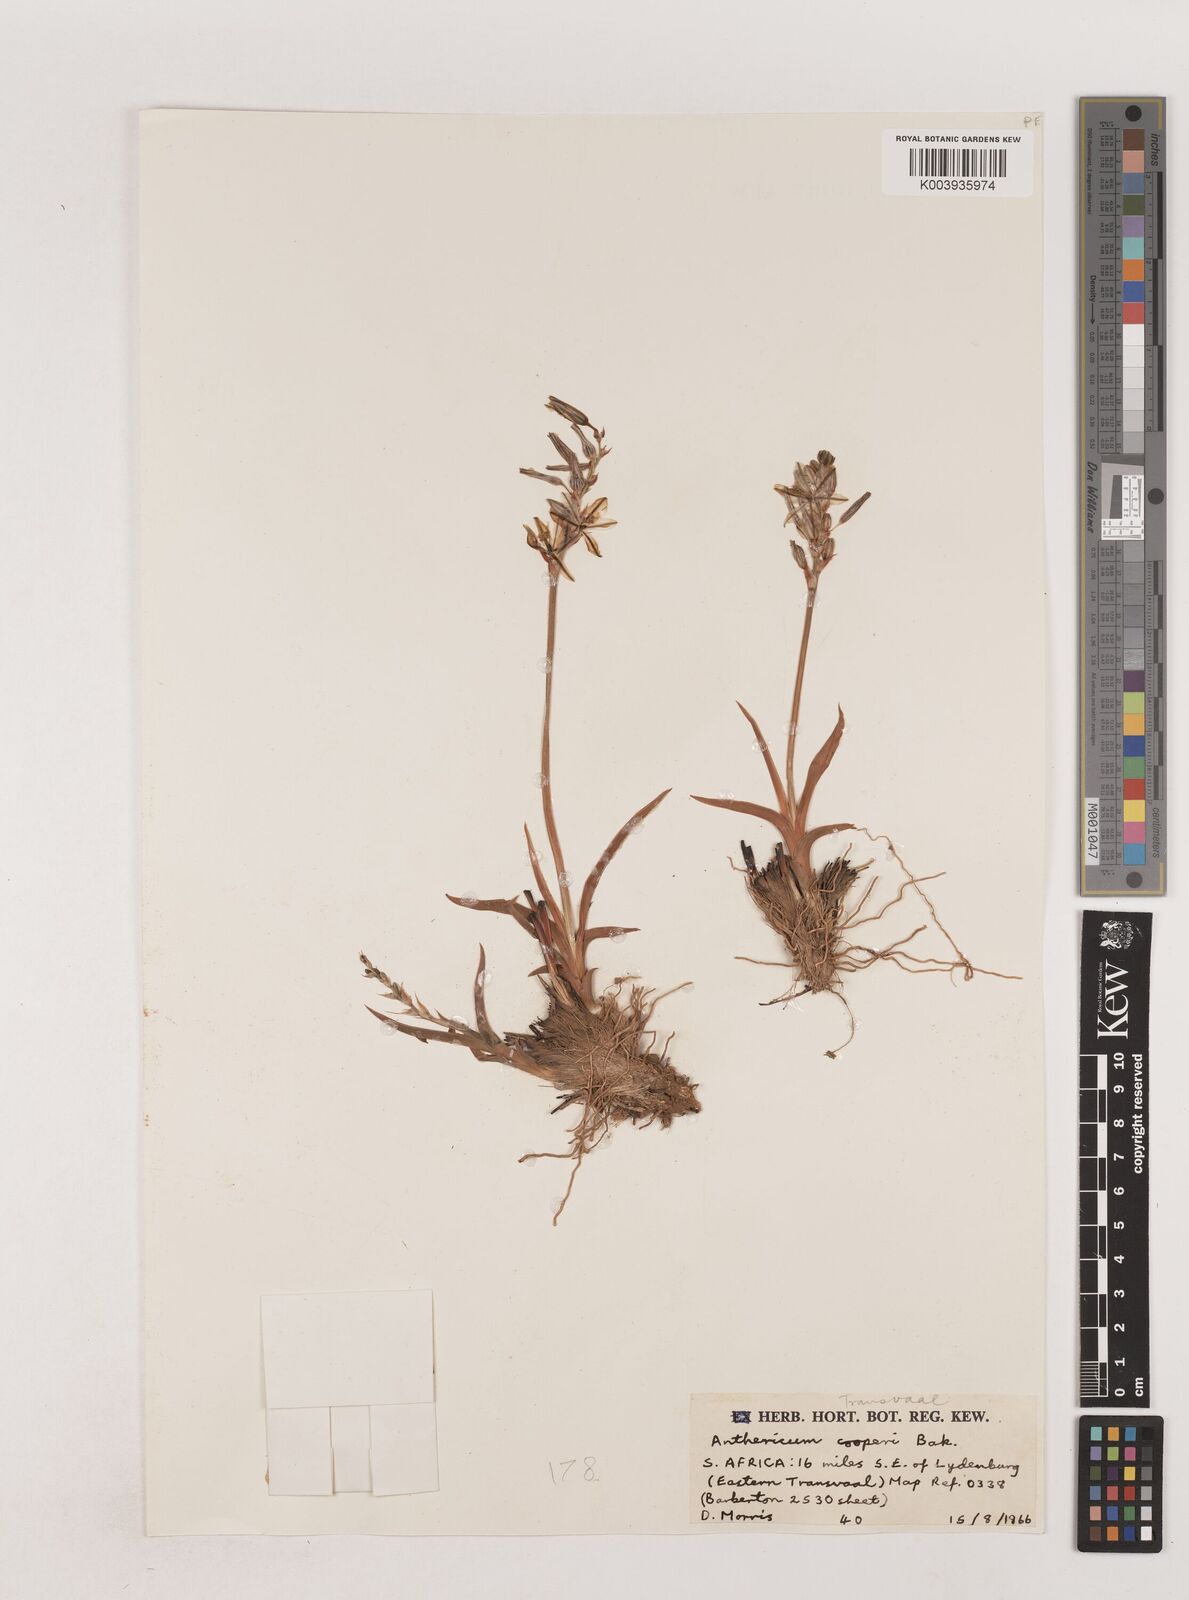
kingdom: Plantae
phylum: Tracheophyta
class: Liliopsida
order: Asparagales
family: Asparagaceae
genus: Chlorophytum
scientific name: Chlorophytum cooperi
